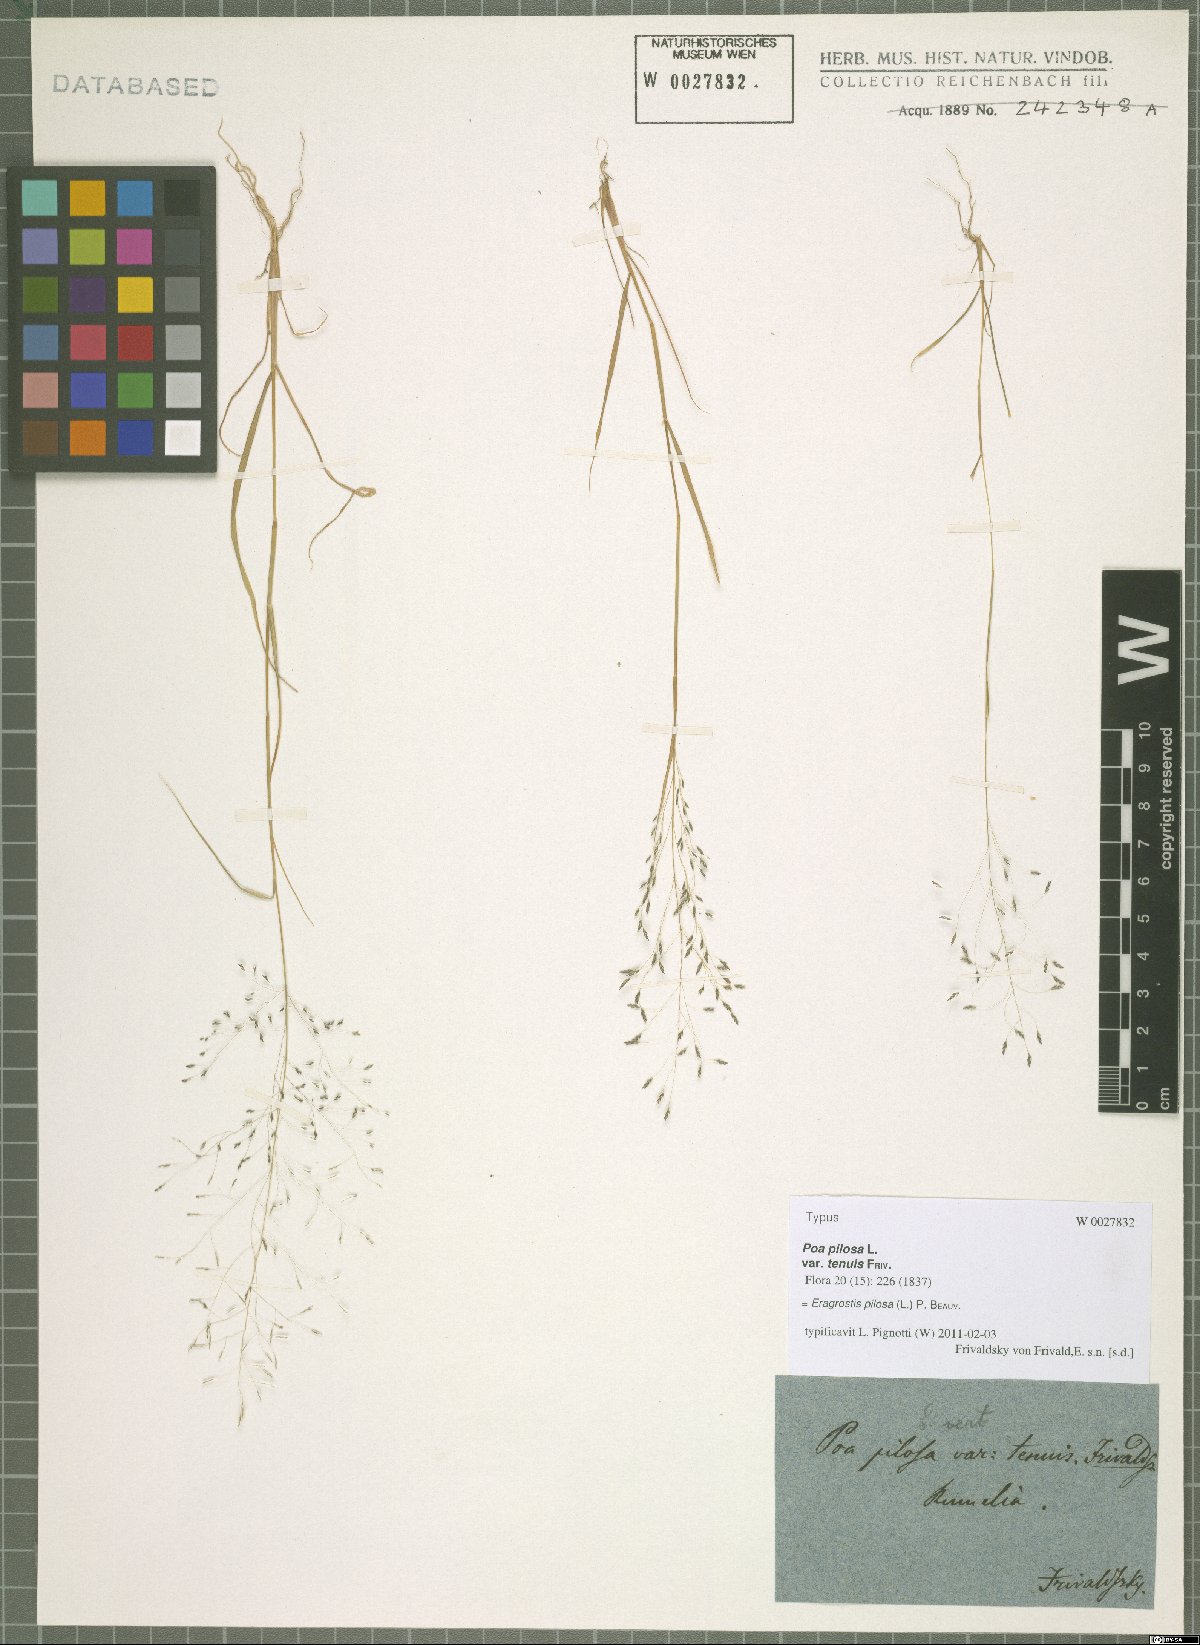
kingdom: Plantae
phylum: Tracheophyta
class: Liliopsida
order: Poales
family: Poaceae
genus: Eragrostis
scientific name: Eragrostis pilosa
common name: Indian lovegrass
